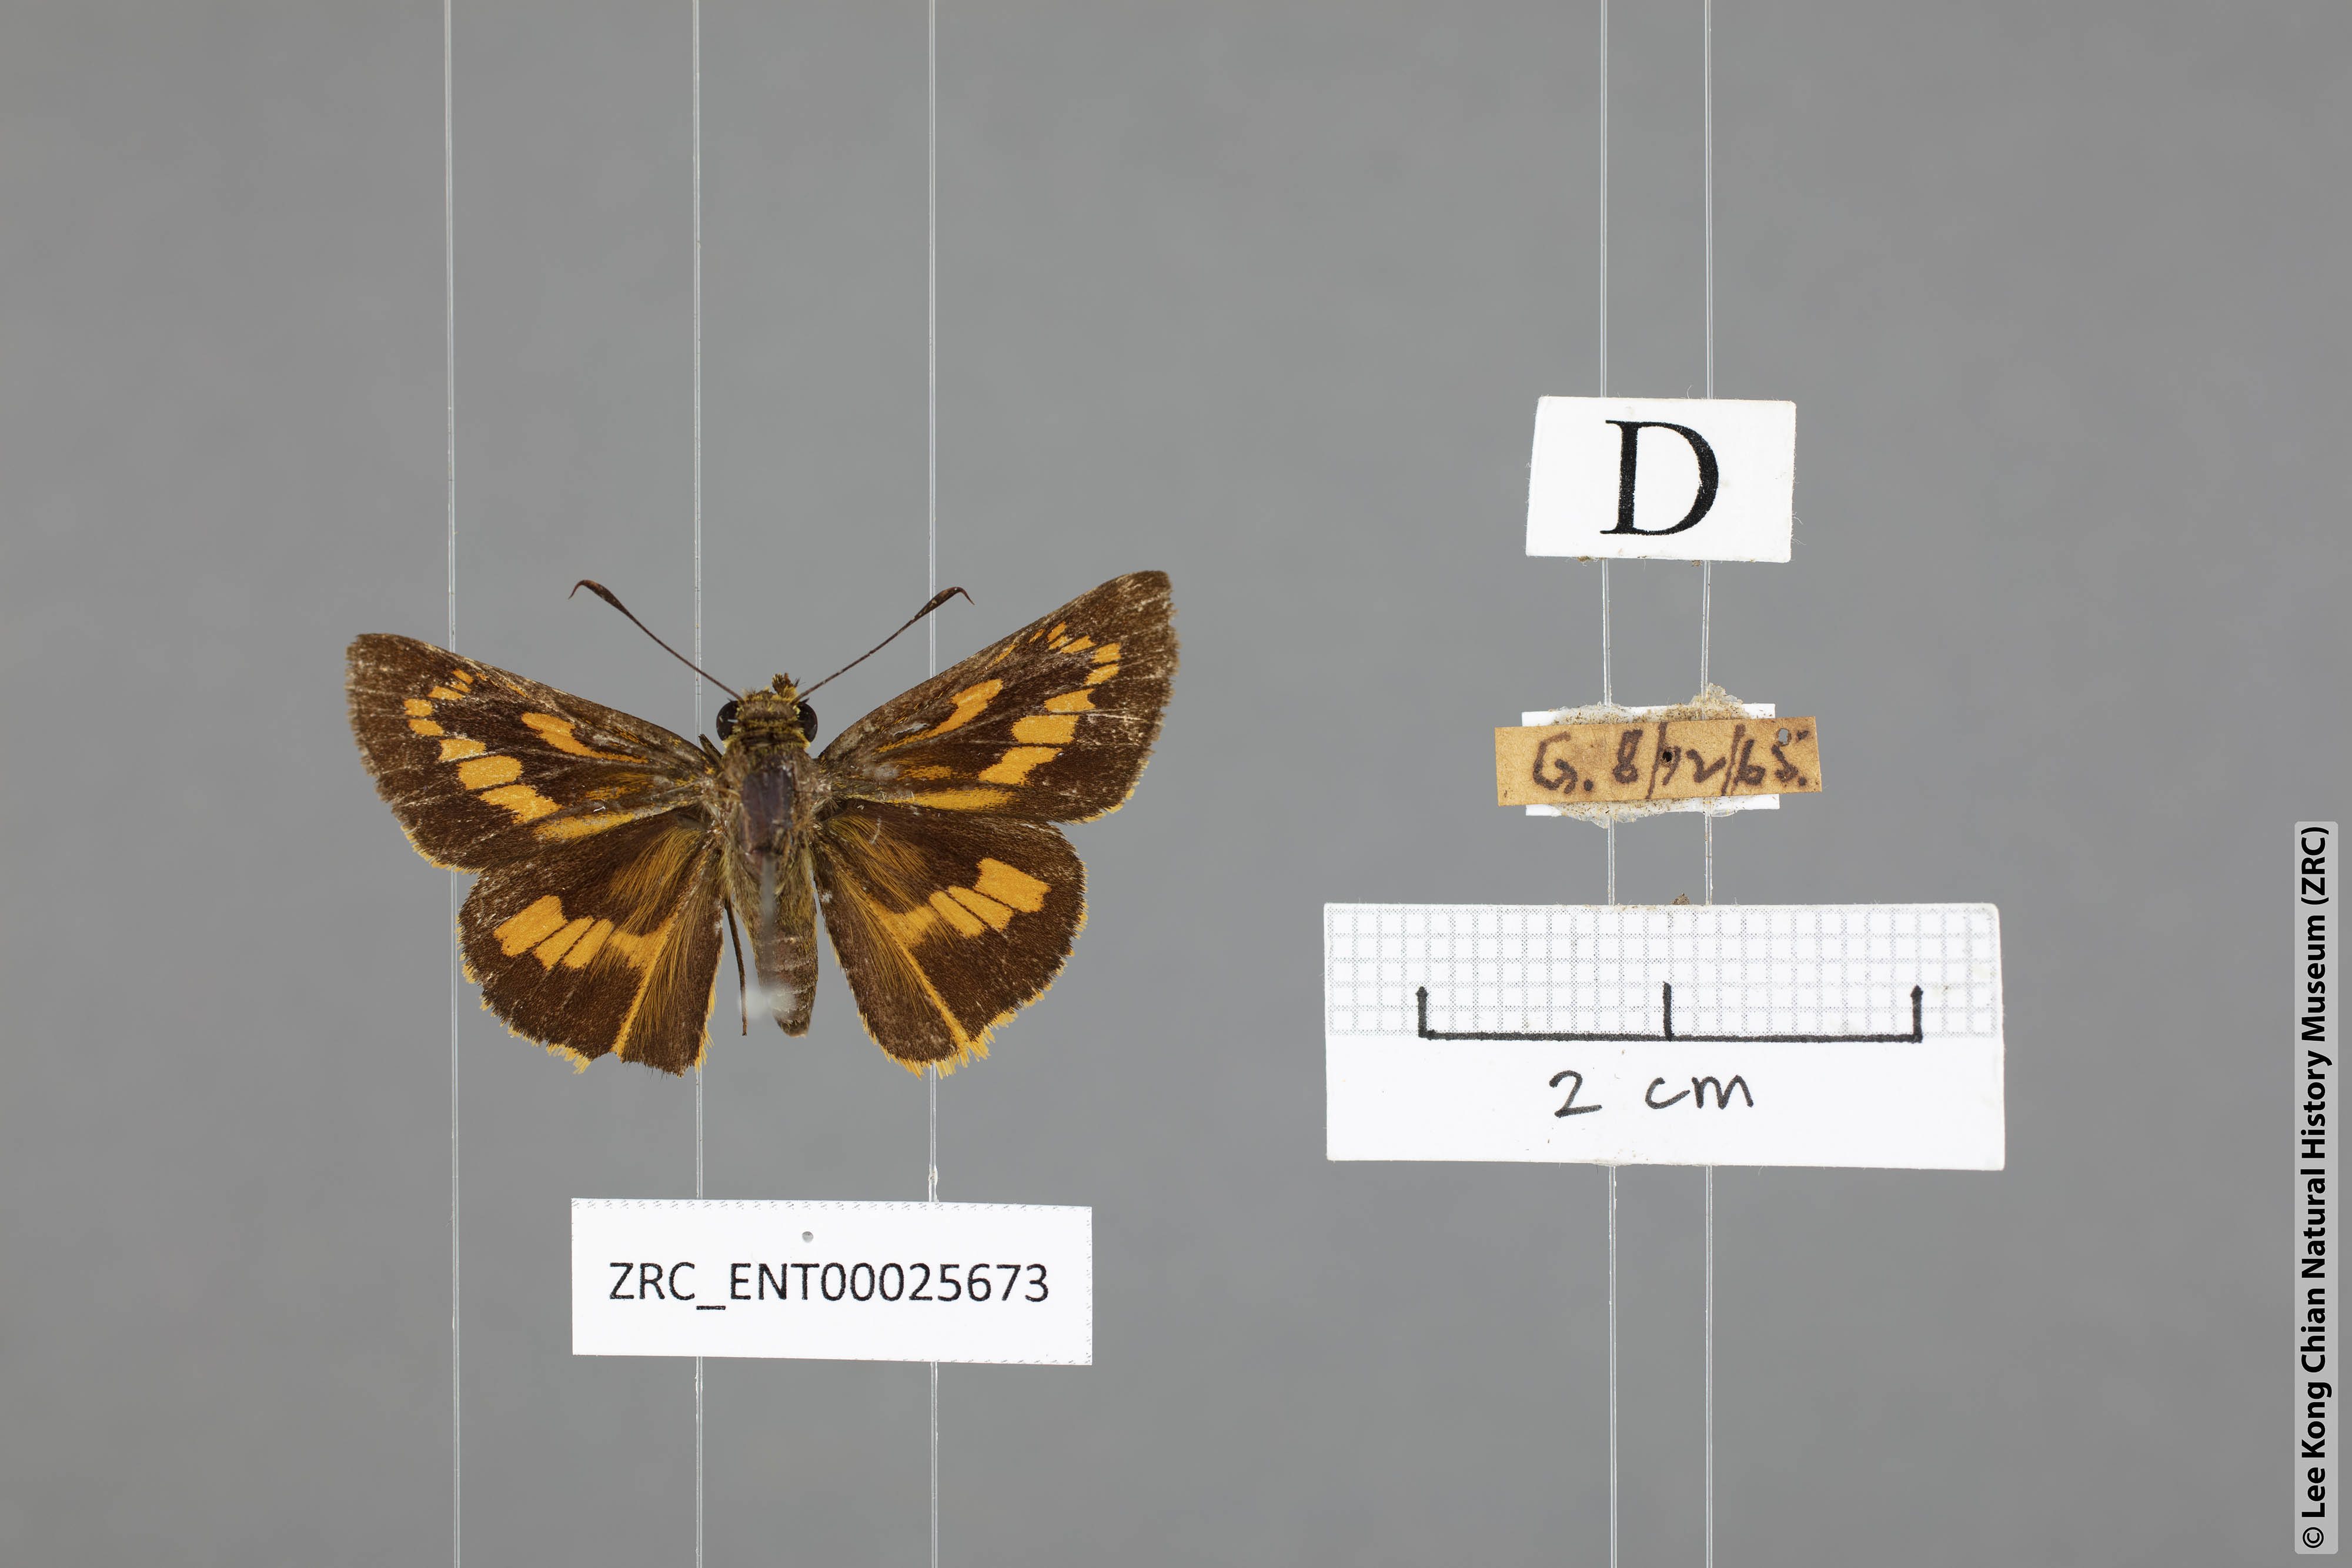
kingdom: Animalia
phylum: Arthropoda
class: Insecta
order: Lepidoptera
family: Hesperiidae
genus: Telicota
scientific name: Telicota hilda
